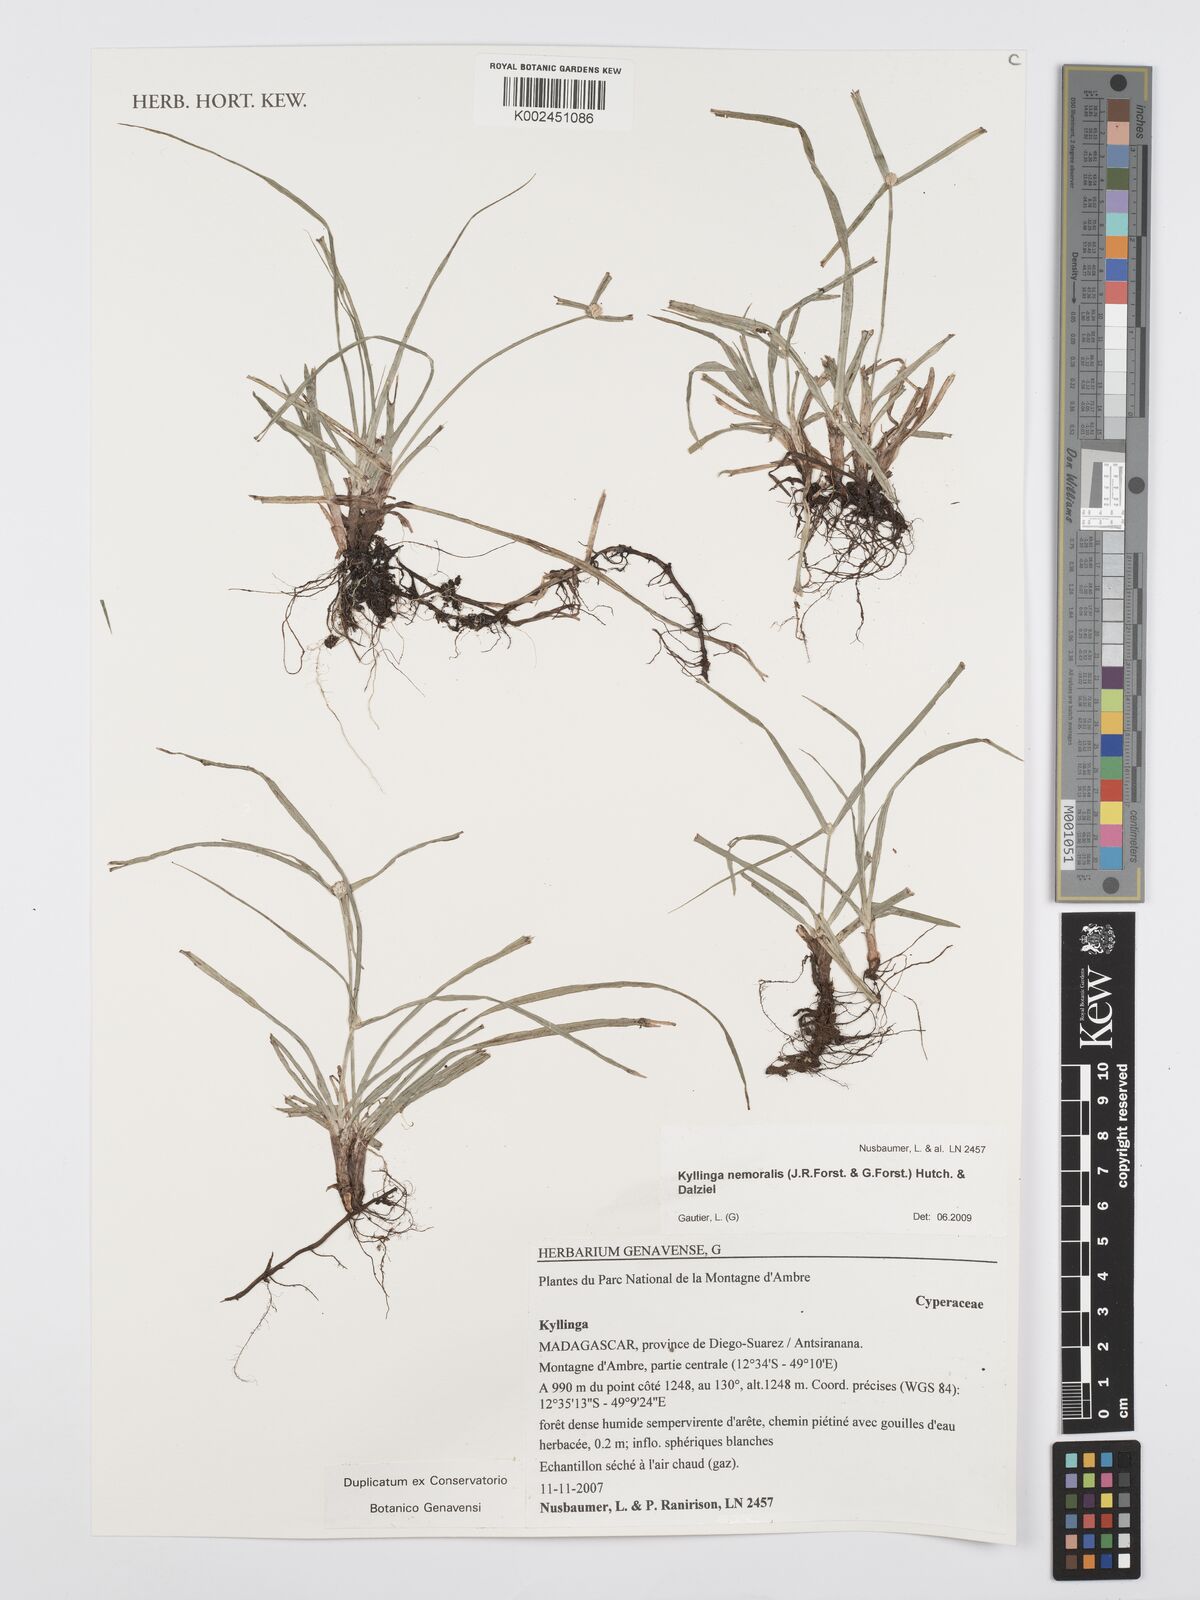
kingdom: Plantae
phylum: Tracheophyta
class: Liliopsida
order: Poales
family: Cyperaceae
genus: Cyperus
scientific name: Cyperus nemoralis
